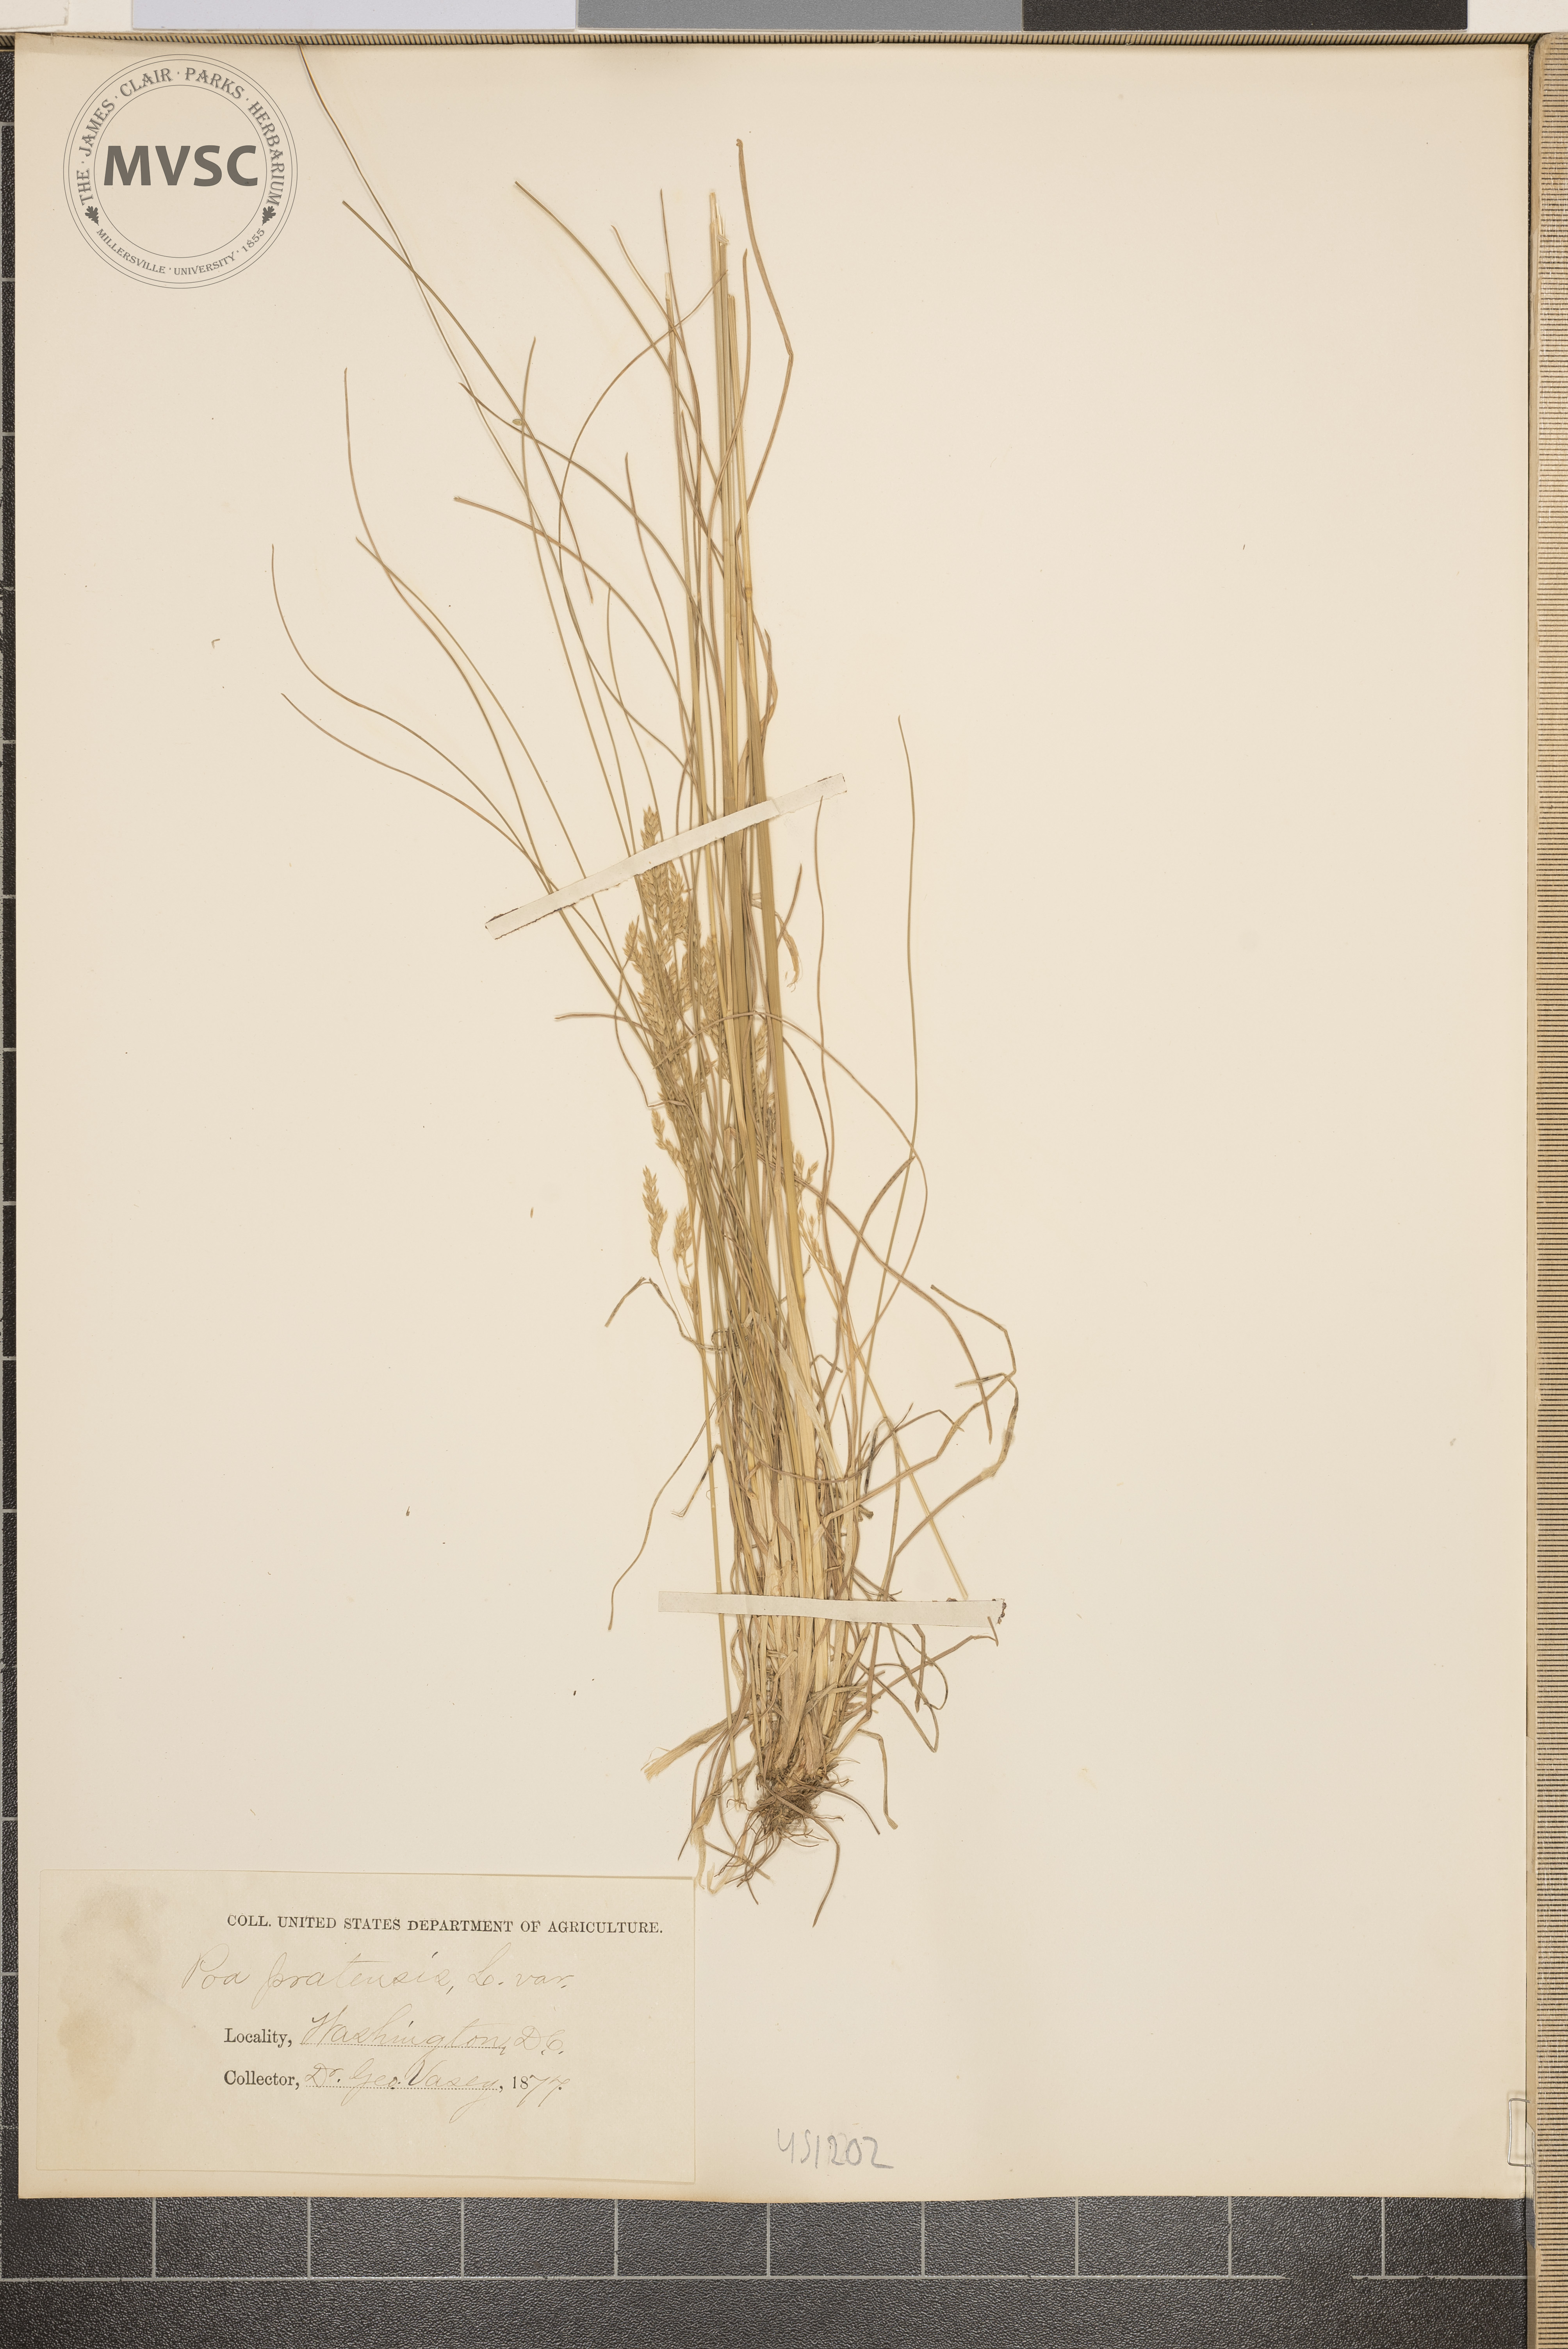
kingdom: Plantae
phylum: Tracheophyta
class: Liliopsida
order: Poales
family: Poaceae
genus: Poa
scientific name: Poa pratensis
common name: Kentucky bluegrass
